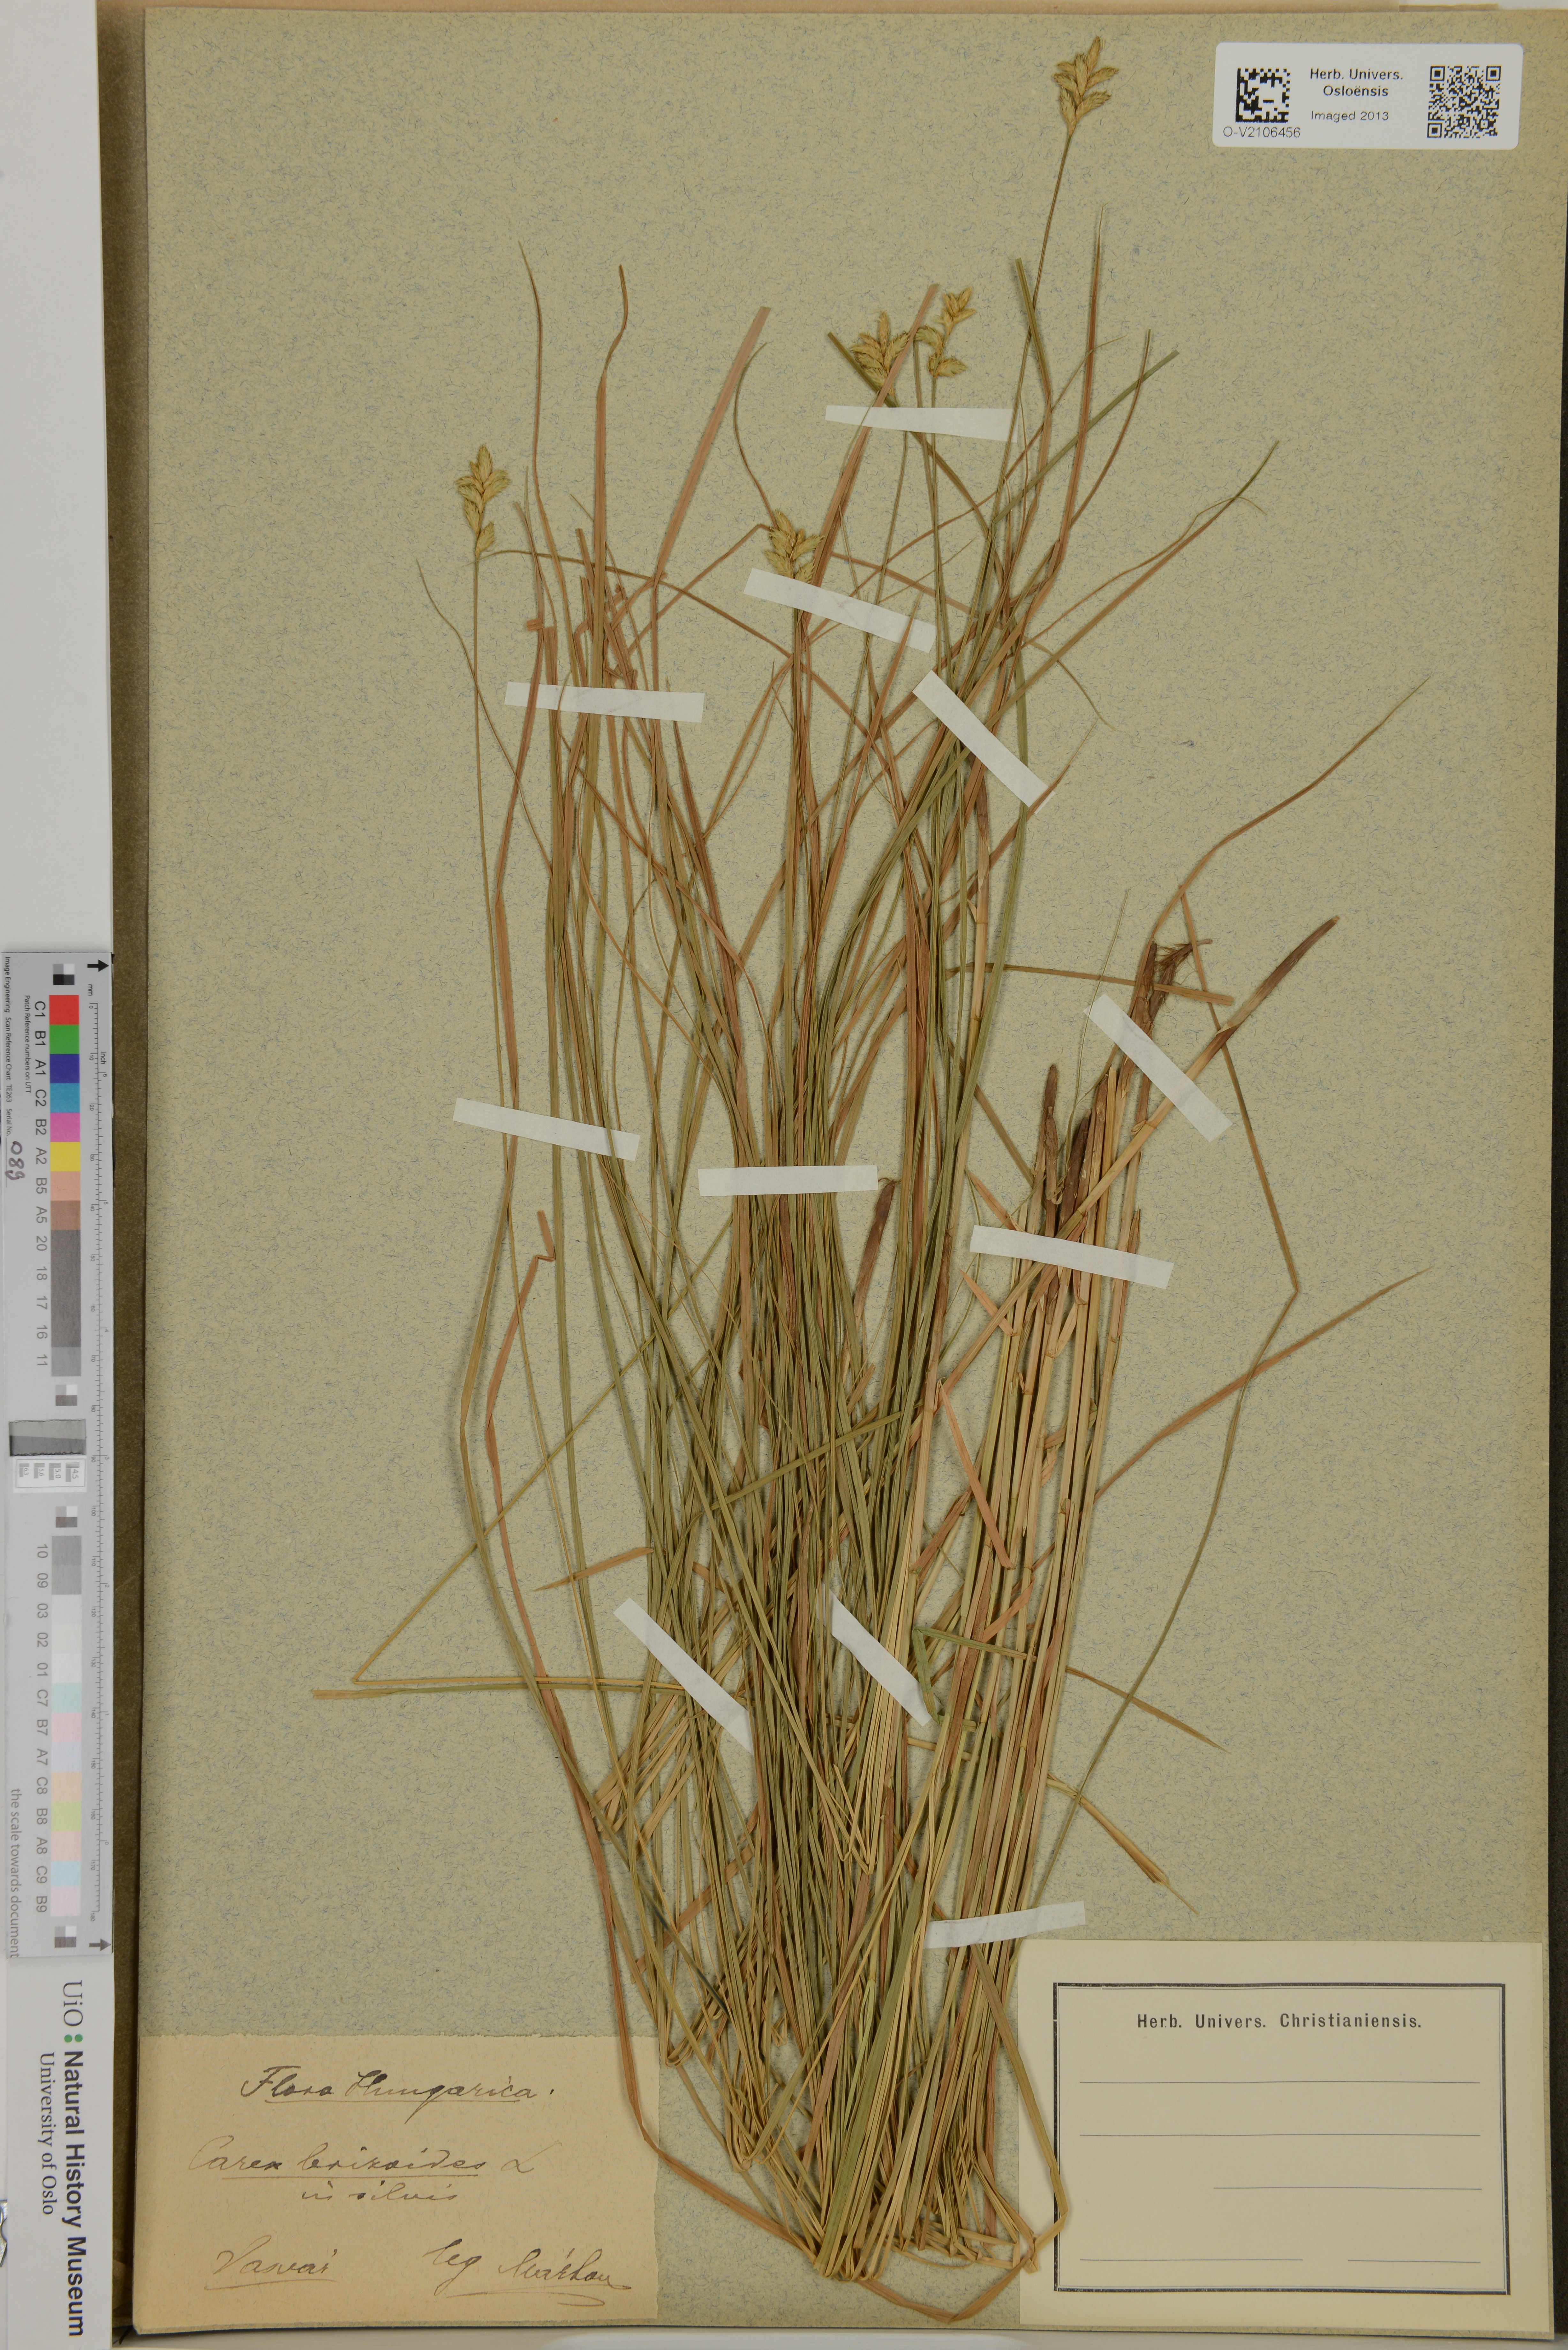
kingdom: Plantae
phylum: Tracheophyta
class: Liliopsida
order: Poales
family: Cyperaceae
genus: Carex
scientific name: Carex brizoides
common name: Quaking-grass sedge
